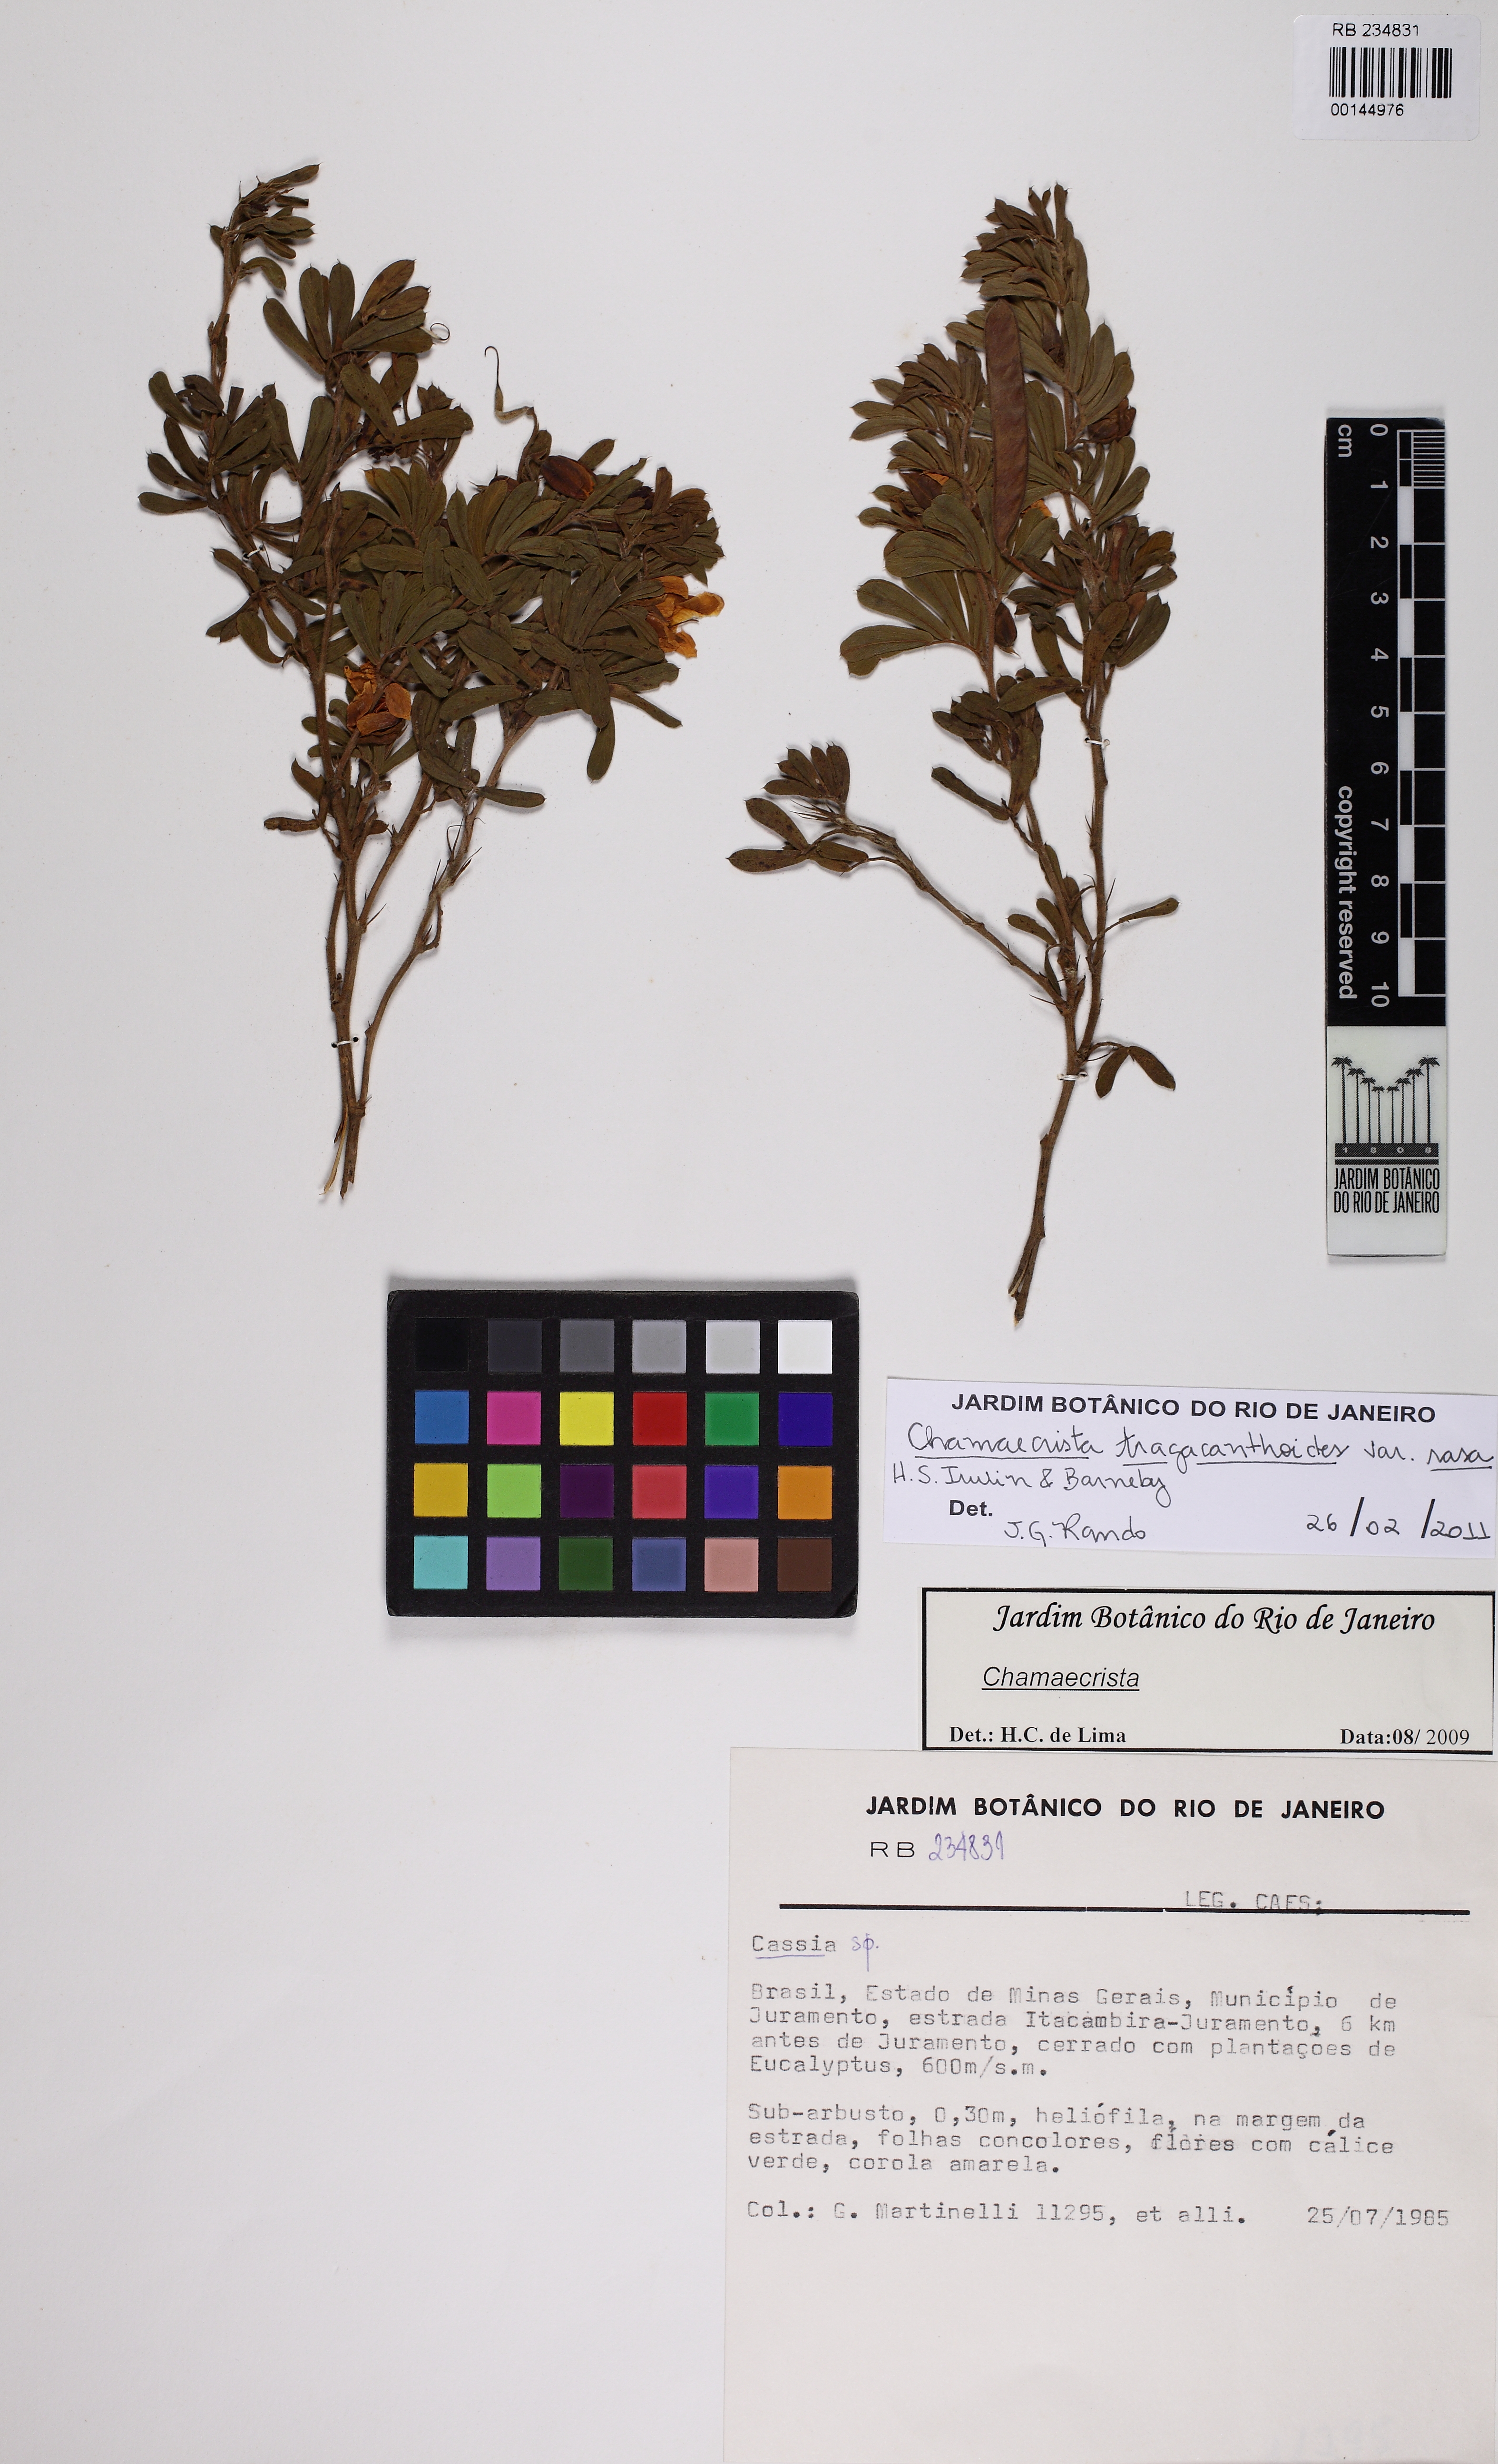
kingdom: Plantae
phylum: Tracheophyta
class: Magnoliopsida
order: Fabales
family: Fabaceae
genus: Chamaecrista
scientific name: Chamaecrista tragacanthoides
